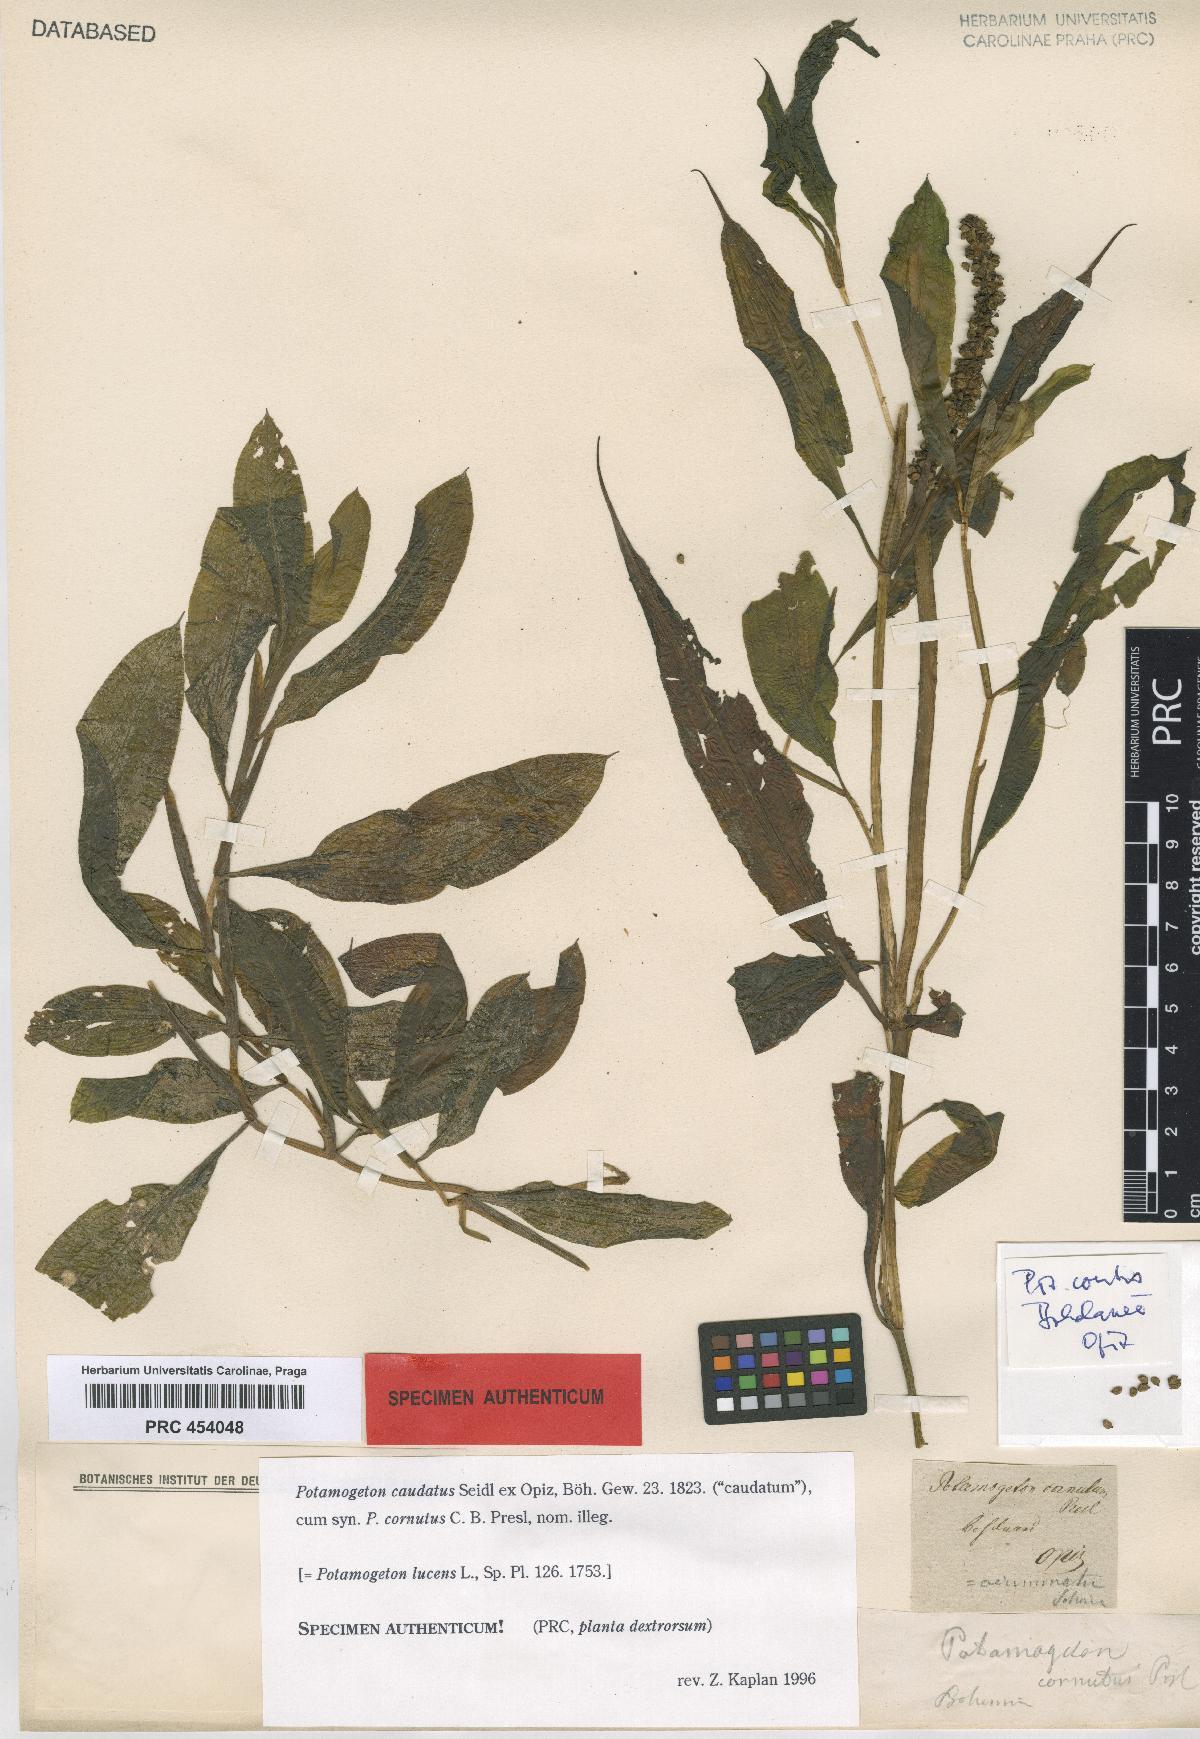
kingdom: Plantae
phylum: Tracheophyta
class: Liliopsida
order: Alismatales
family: Potamogetonaceae
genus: Potamogeton
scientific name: Potamogeton lucens
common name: Shining pondweed
